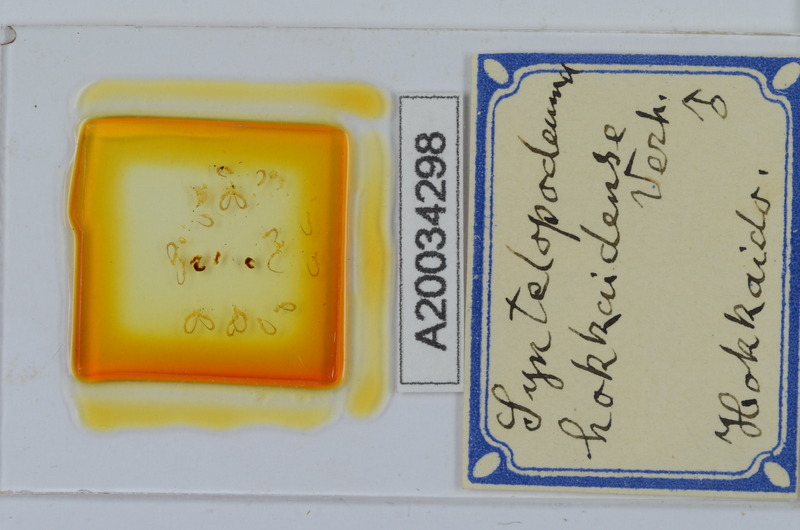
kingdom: Animalia
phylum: Arthropoda
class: Diplopoda
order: Chordeumatida
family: Diplomaragnidae
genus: Diplomaragna
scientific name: Diplomaragna hokkaidensis
